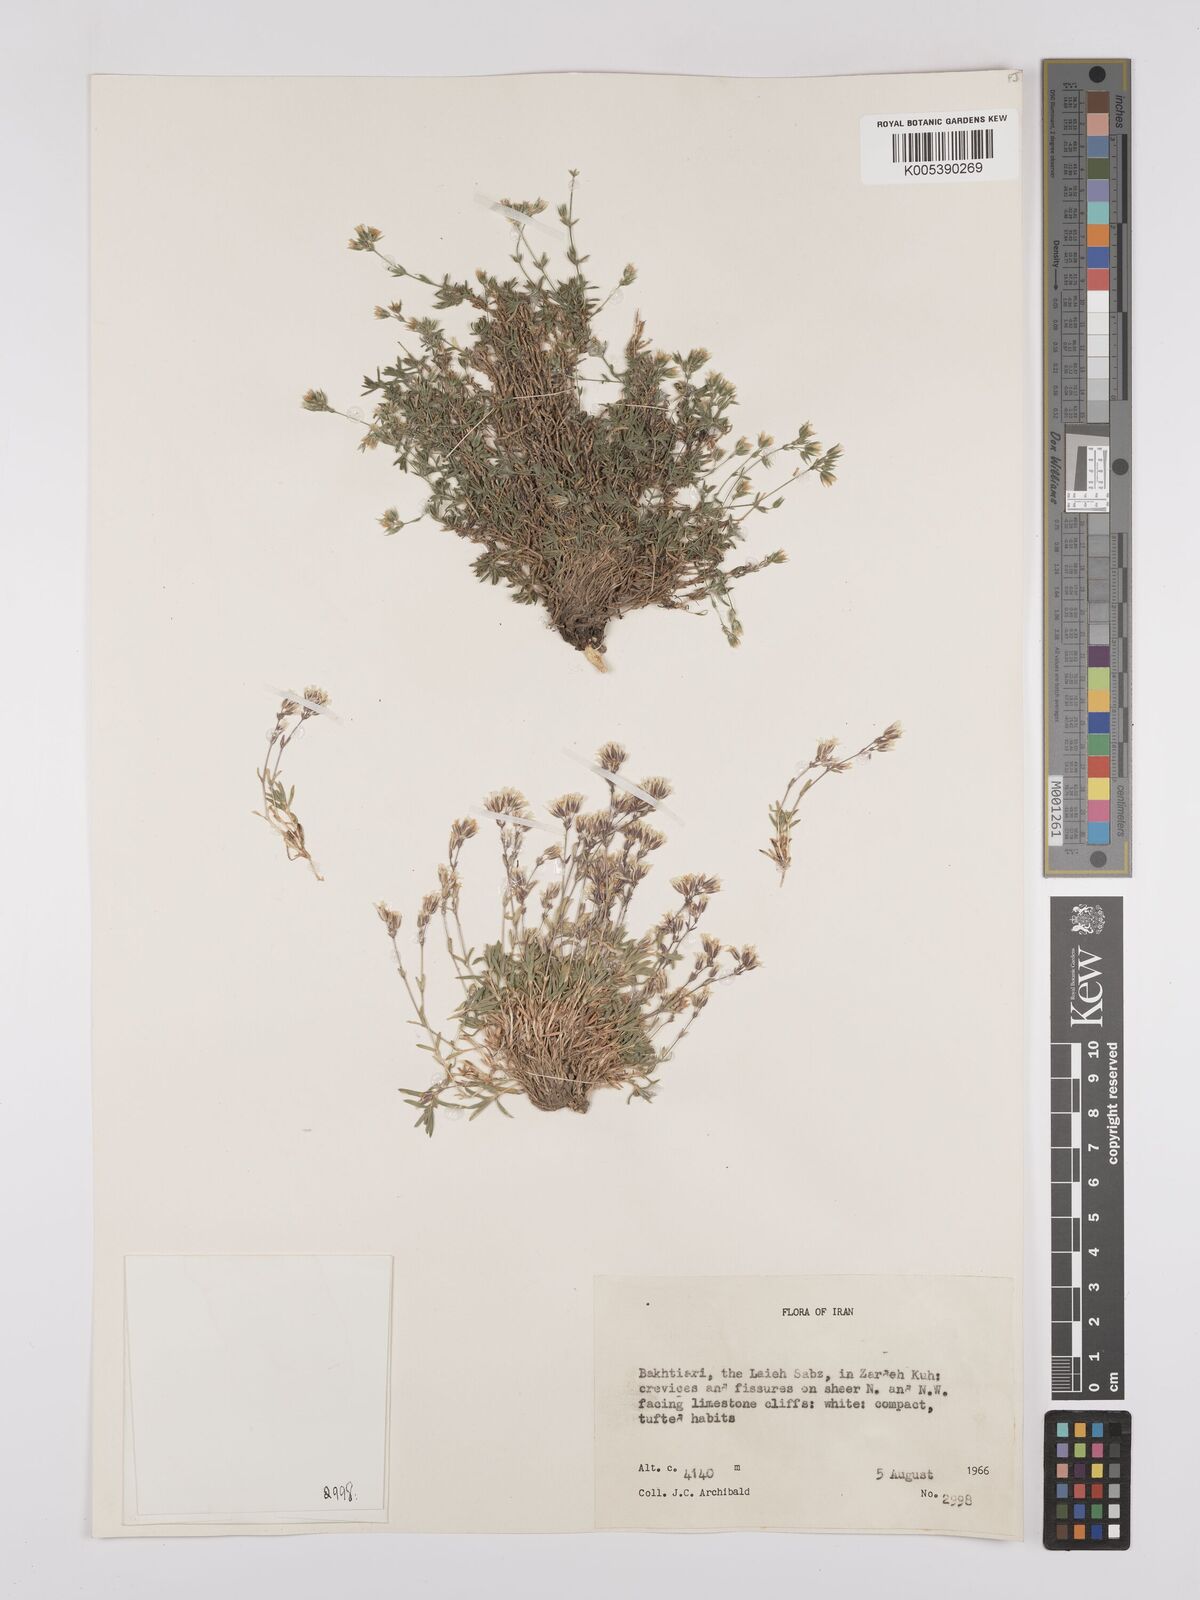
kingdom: Plantae
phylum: Tracheophyta
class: Magnoliopsida
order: Caryophyllales
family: Caryophyllaceae
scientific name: Caryophyllaceae
